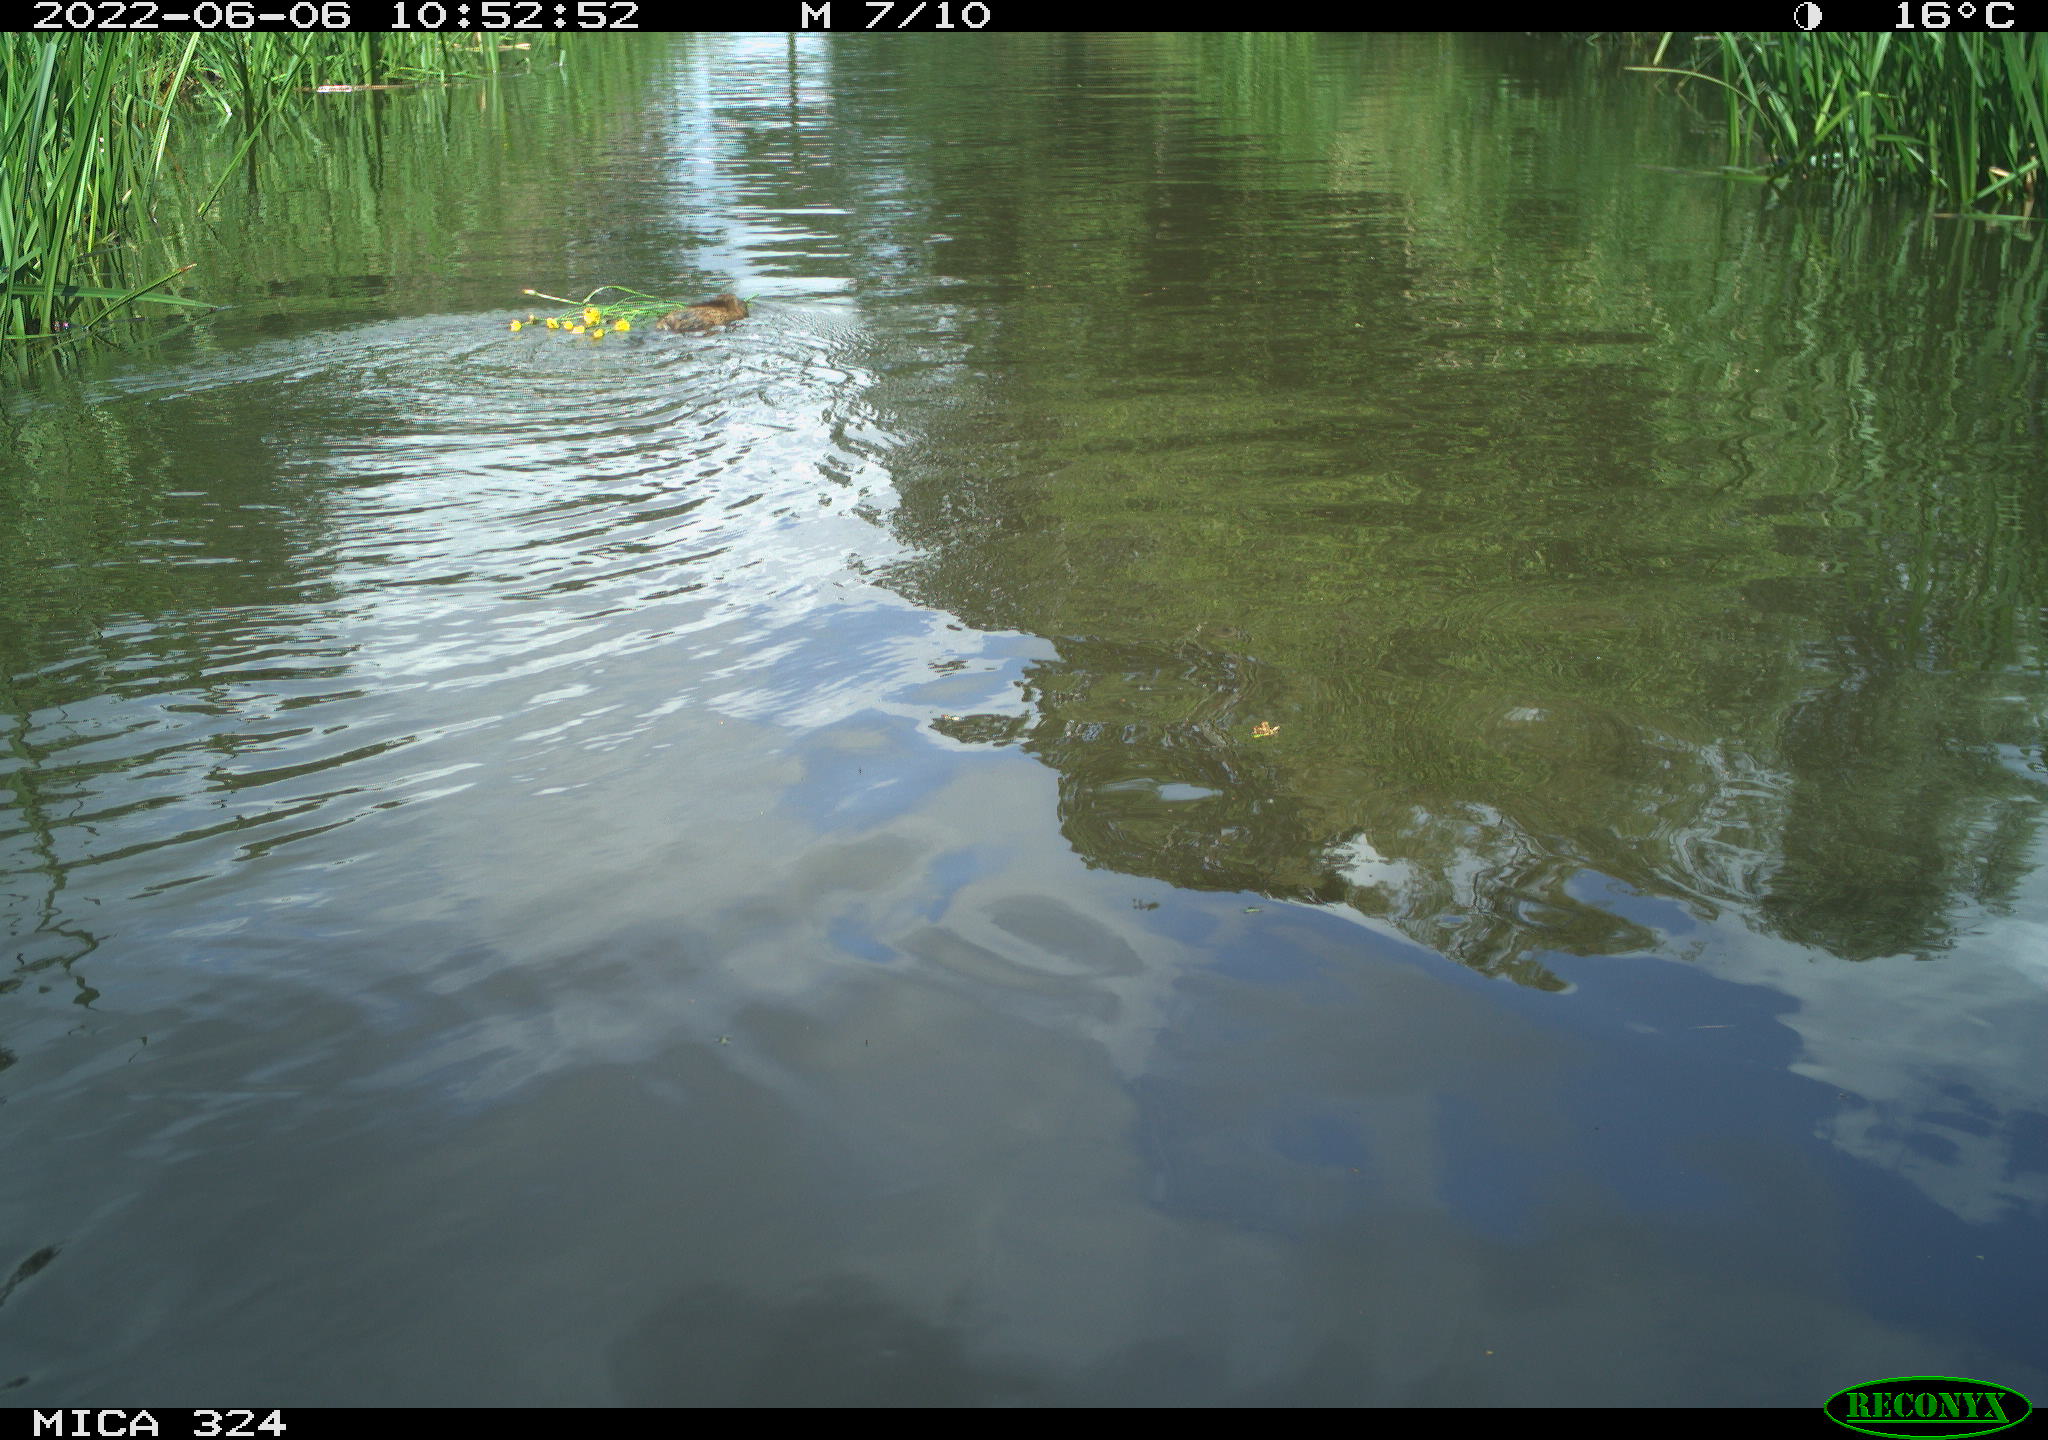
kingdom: Animalia
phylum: Chordata
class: Mammalia
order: Rodentia
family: Cricetidae
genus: Ondatra
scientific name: Ondatra zibethicus
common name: Muskrat
